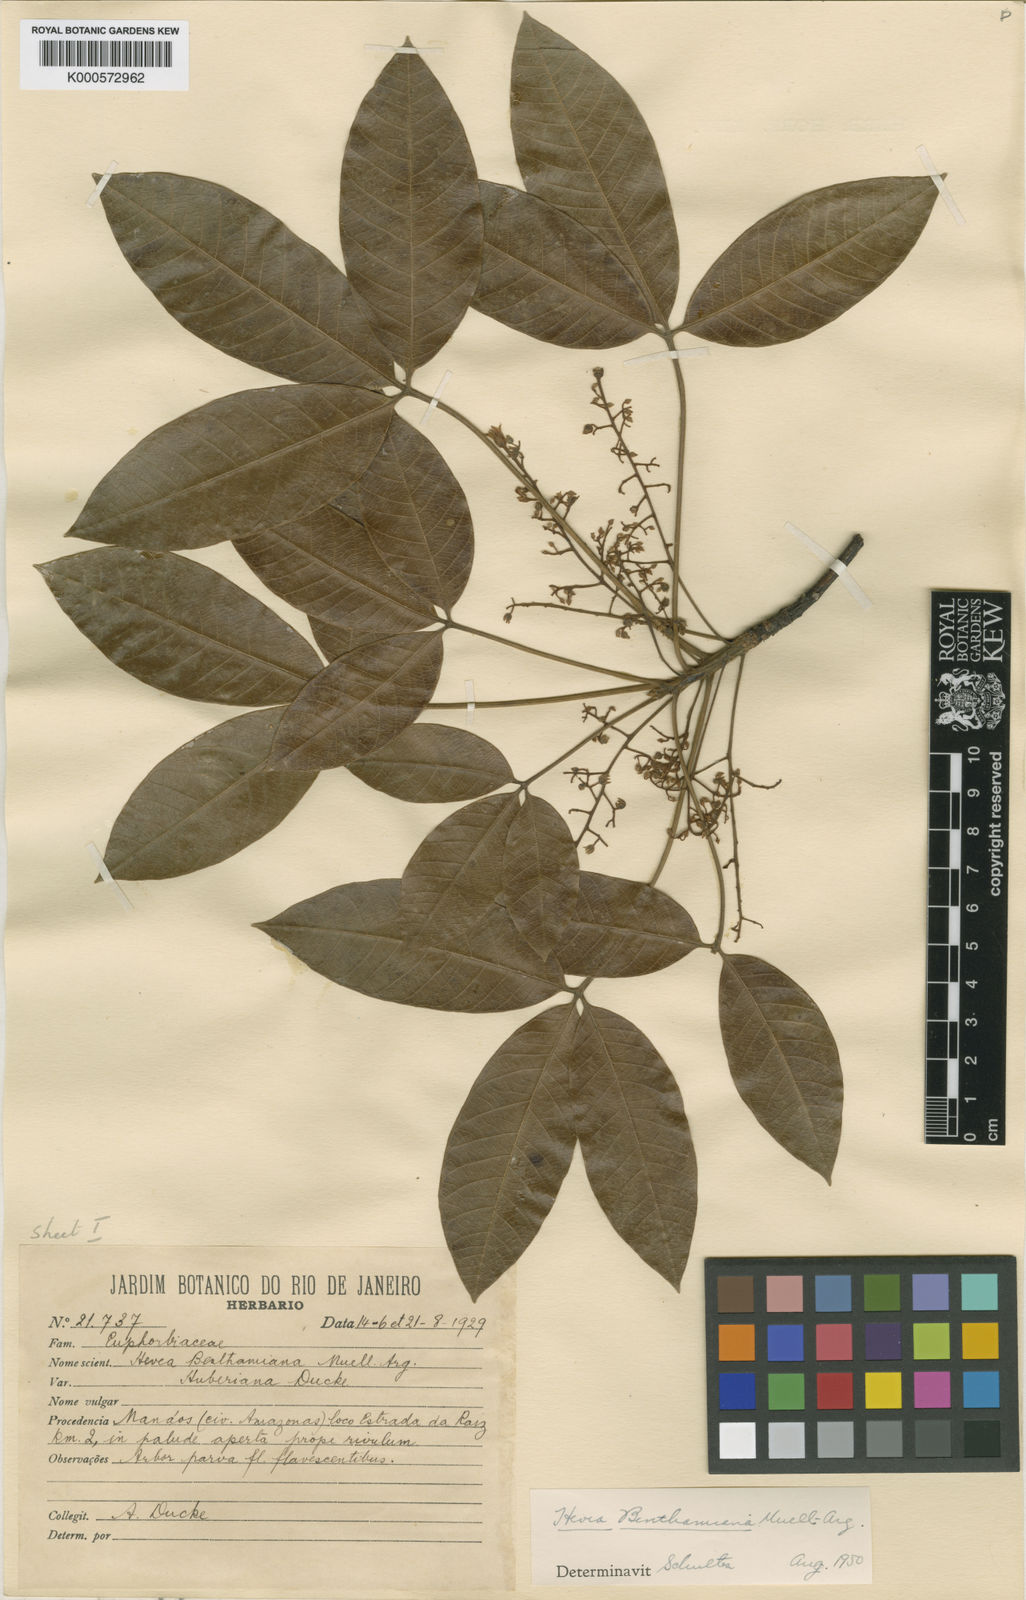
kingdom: Plantae
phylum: Tracheophyta
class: Magnoliopsida
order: Malpighiales
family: Euphorbiaceae
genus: Hevea
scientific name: Hevea benthamiana
